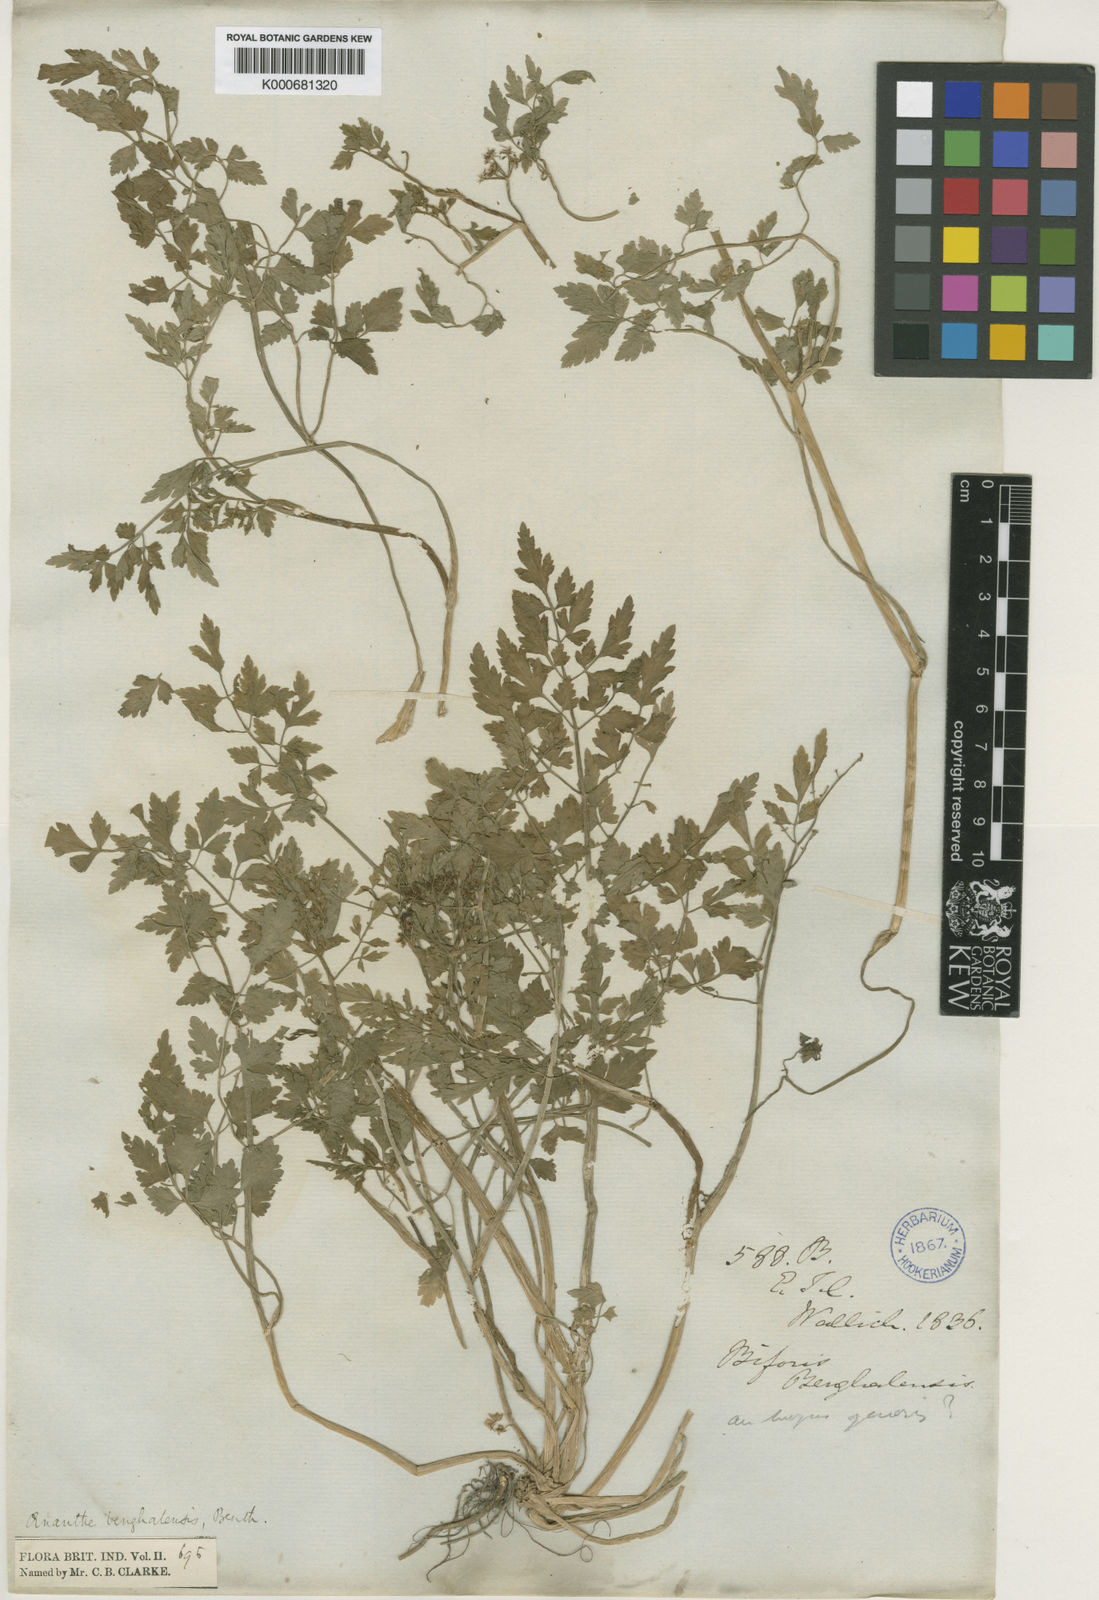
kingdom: Plantae
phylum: Tracheophyta
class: Magnoliopsida
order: Apiales
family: Apiaceae
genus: Oenanthe
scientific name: Oenanthe
